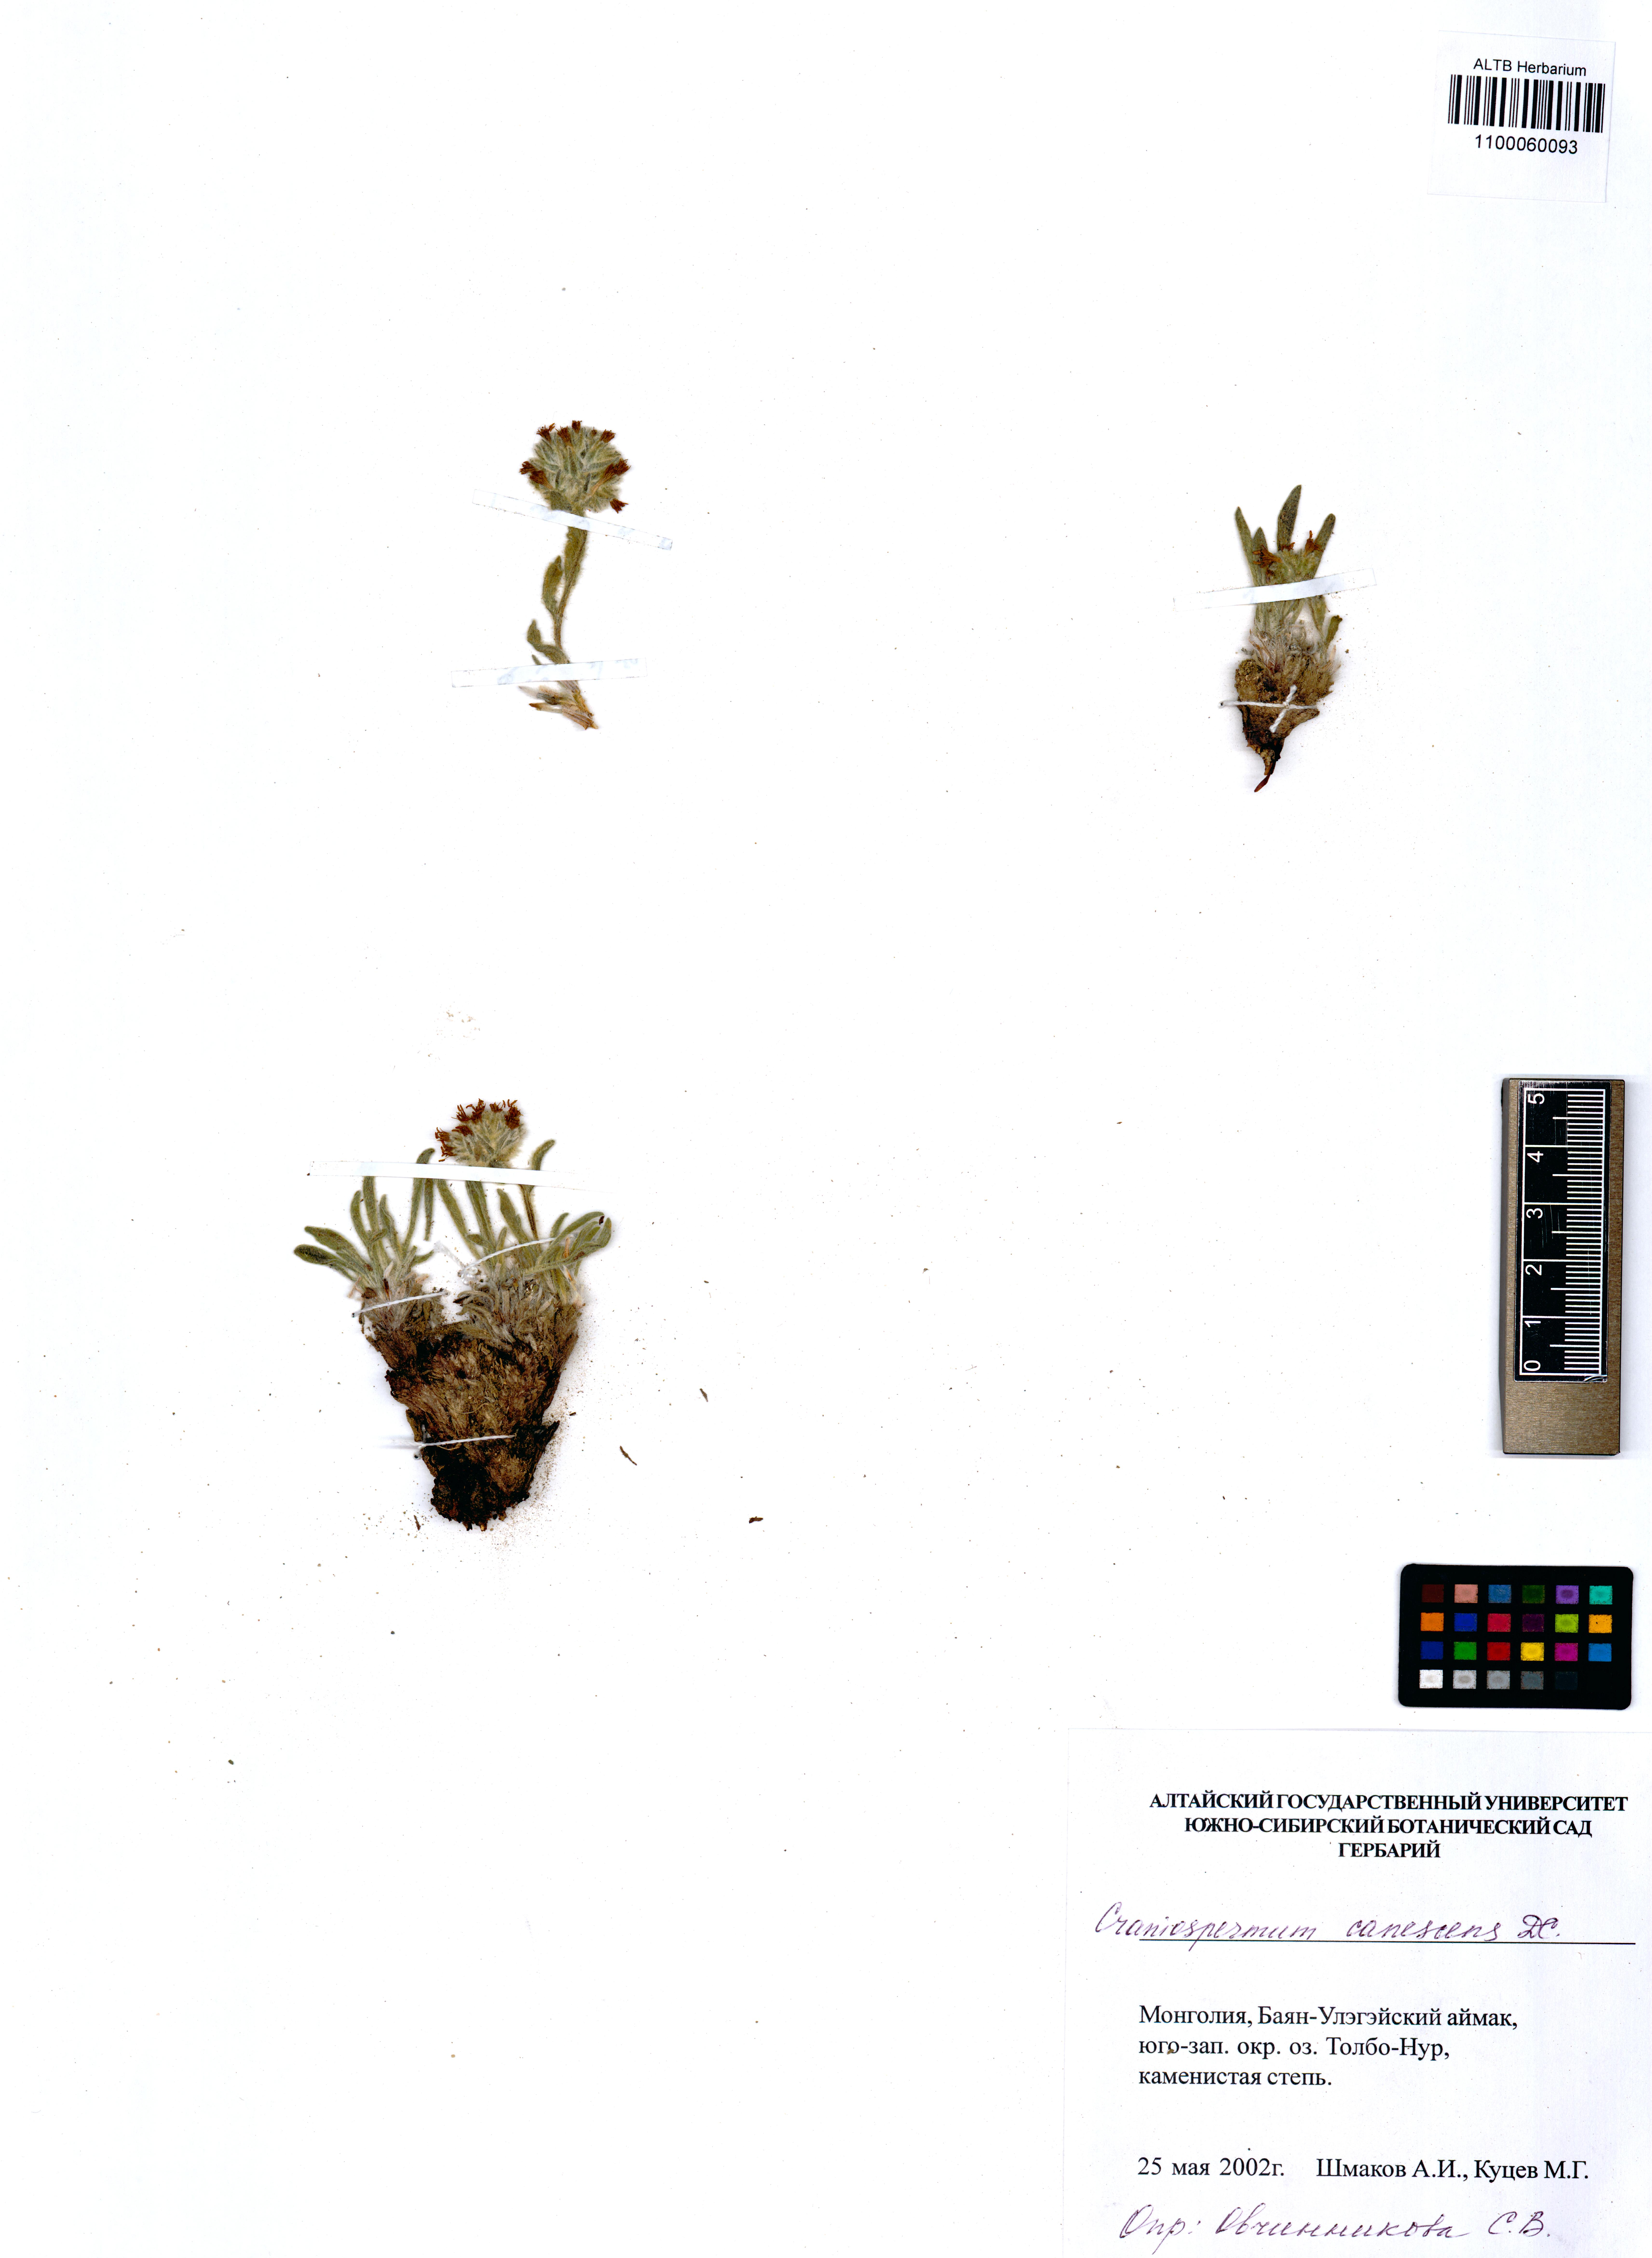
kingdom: Plantae
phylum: Tracheophyta
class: Magnoliopsida
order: Boraginales
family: Boraginaceae
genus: Craniospermum
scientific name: Craniospermum canescens
